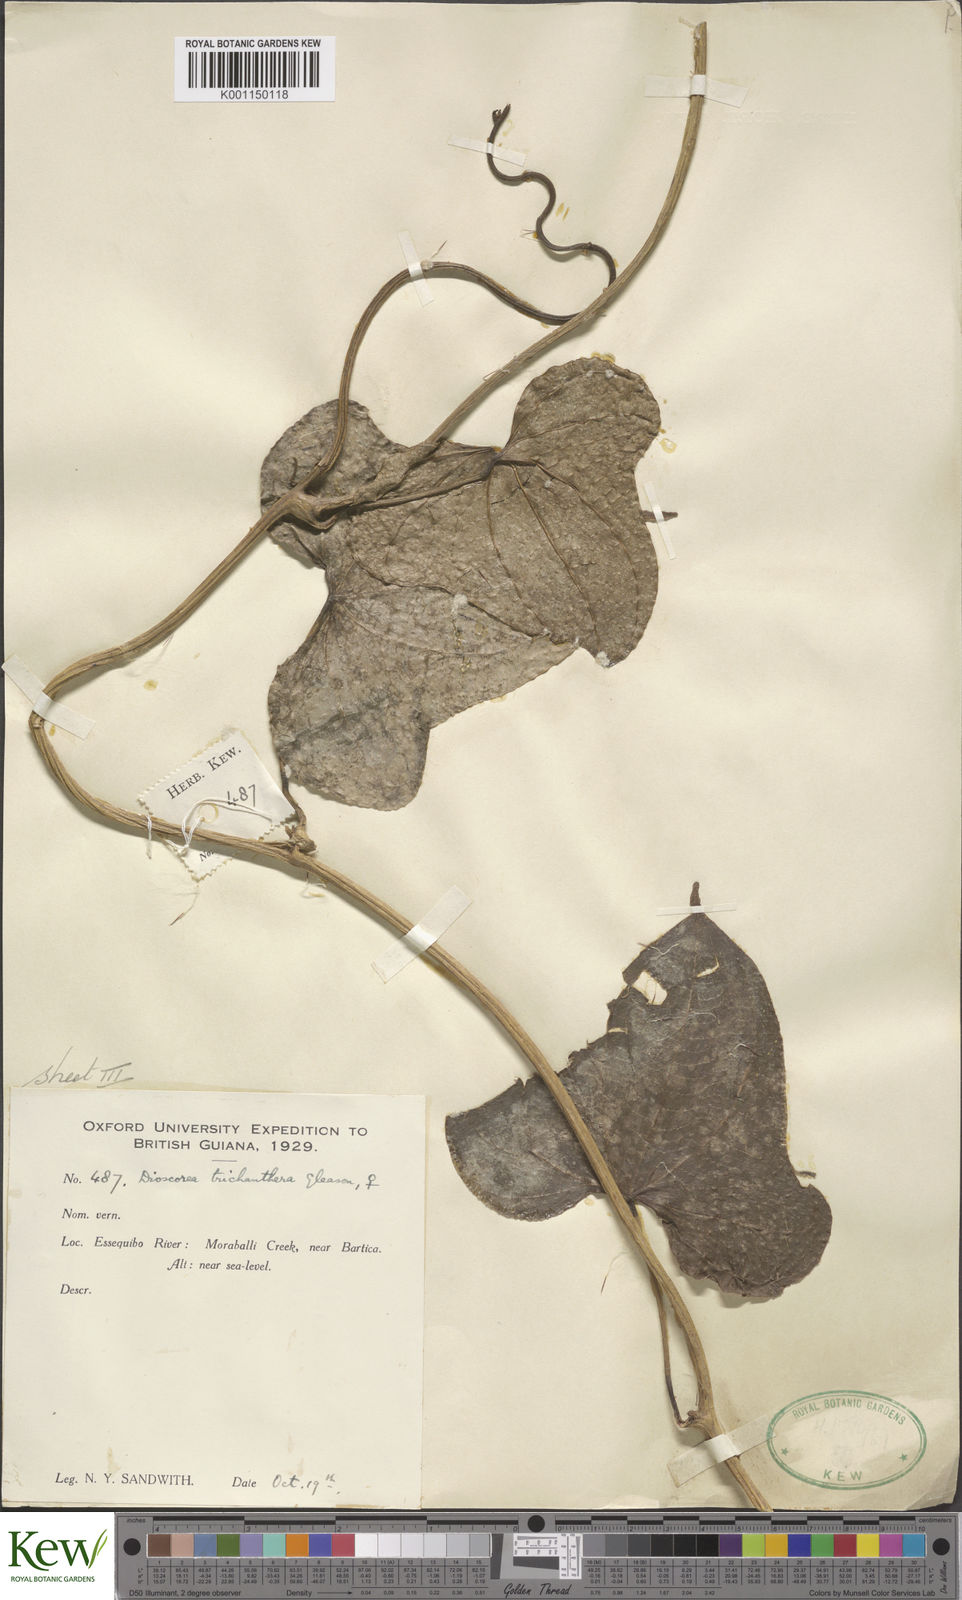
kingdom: Plantae
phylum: Tracheophyta
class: Liliopsida
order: Dioscoreales
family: Dioscoreaceae
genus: Dioscorea
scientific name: Dioscorea trichanthera
